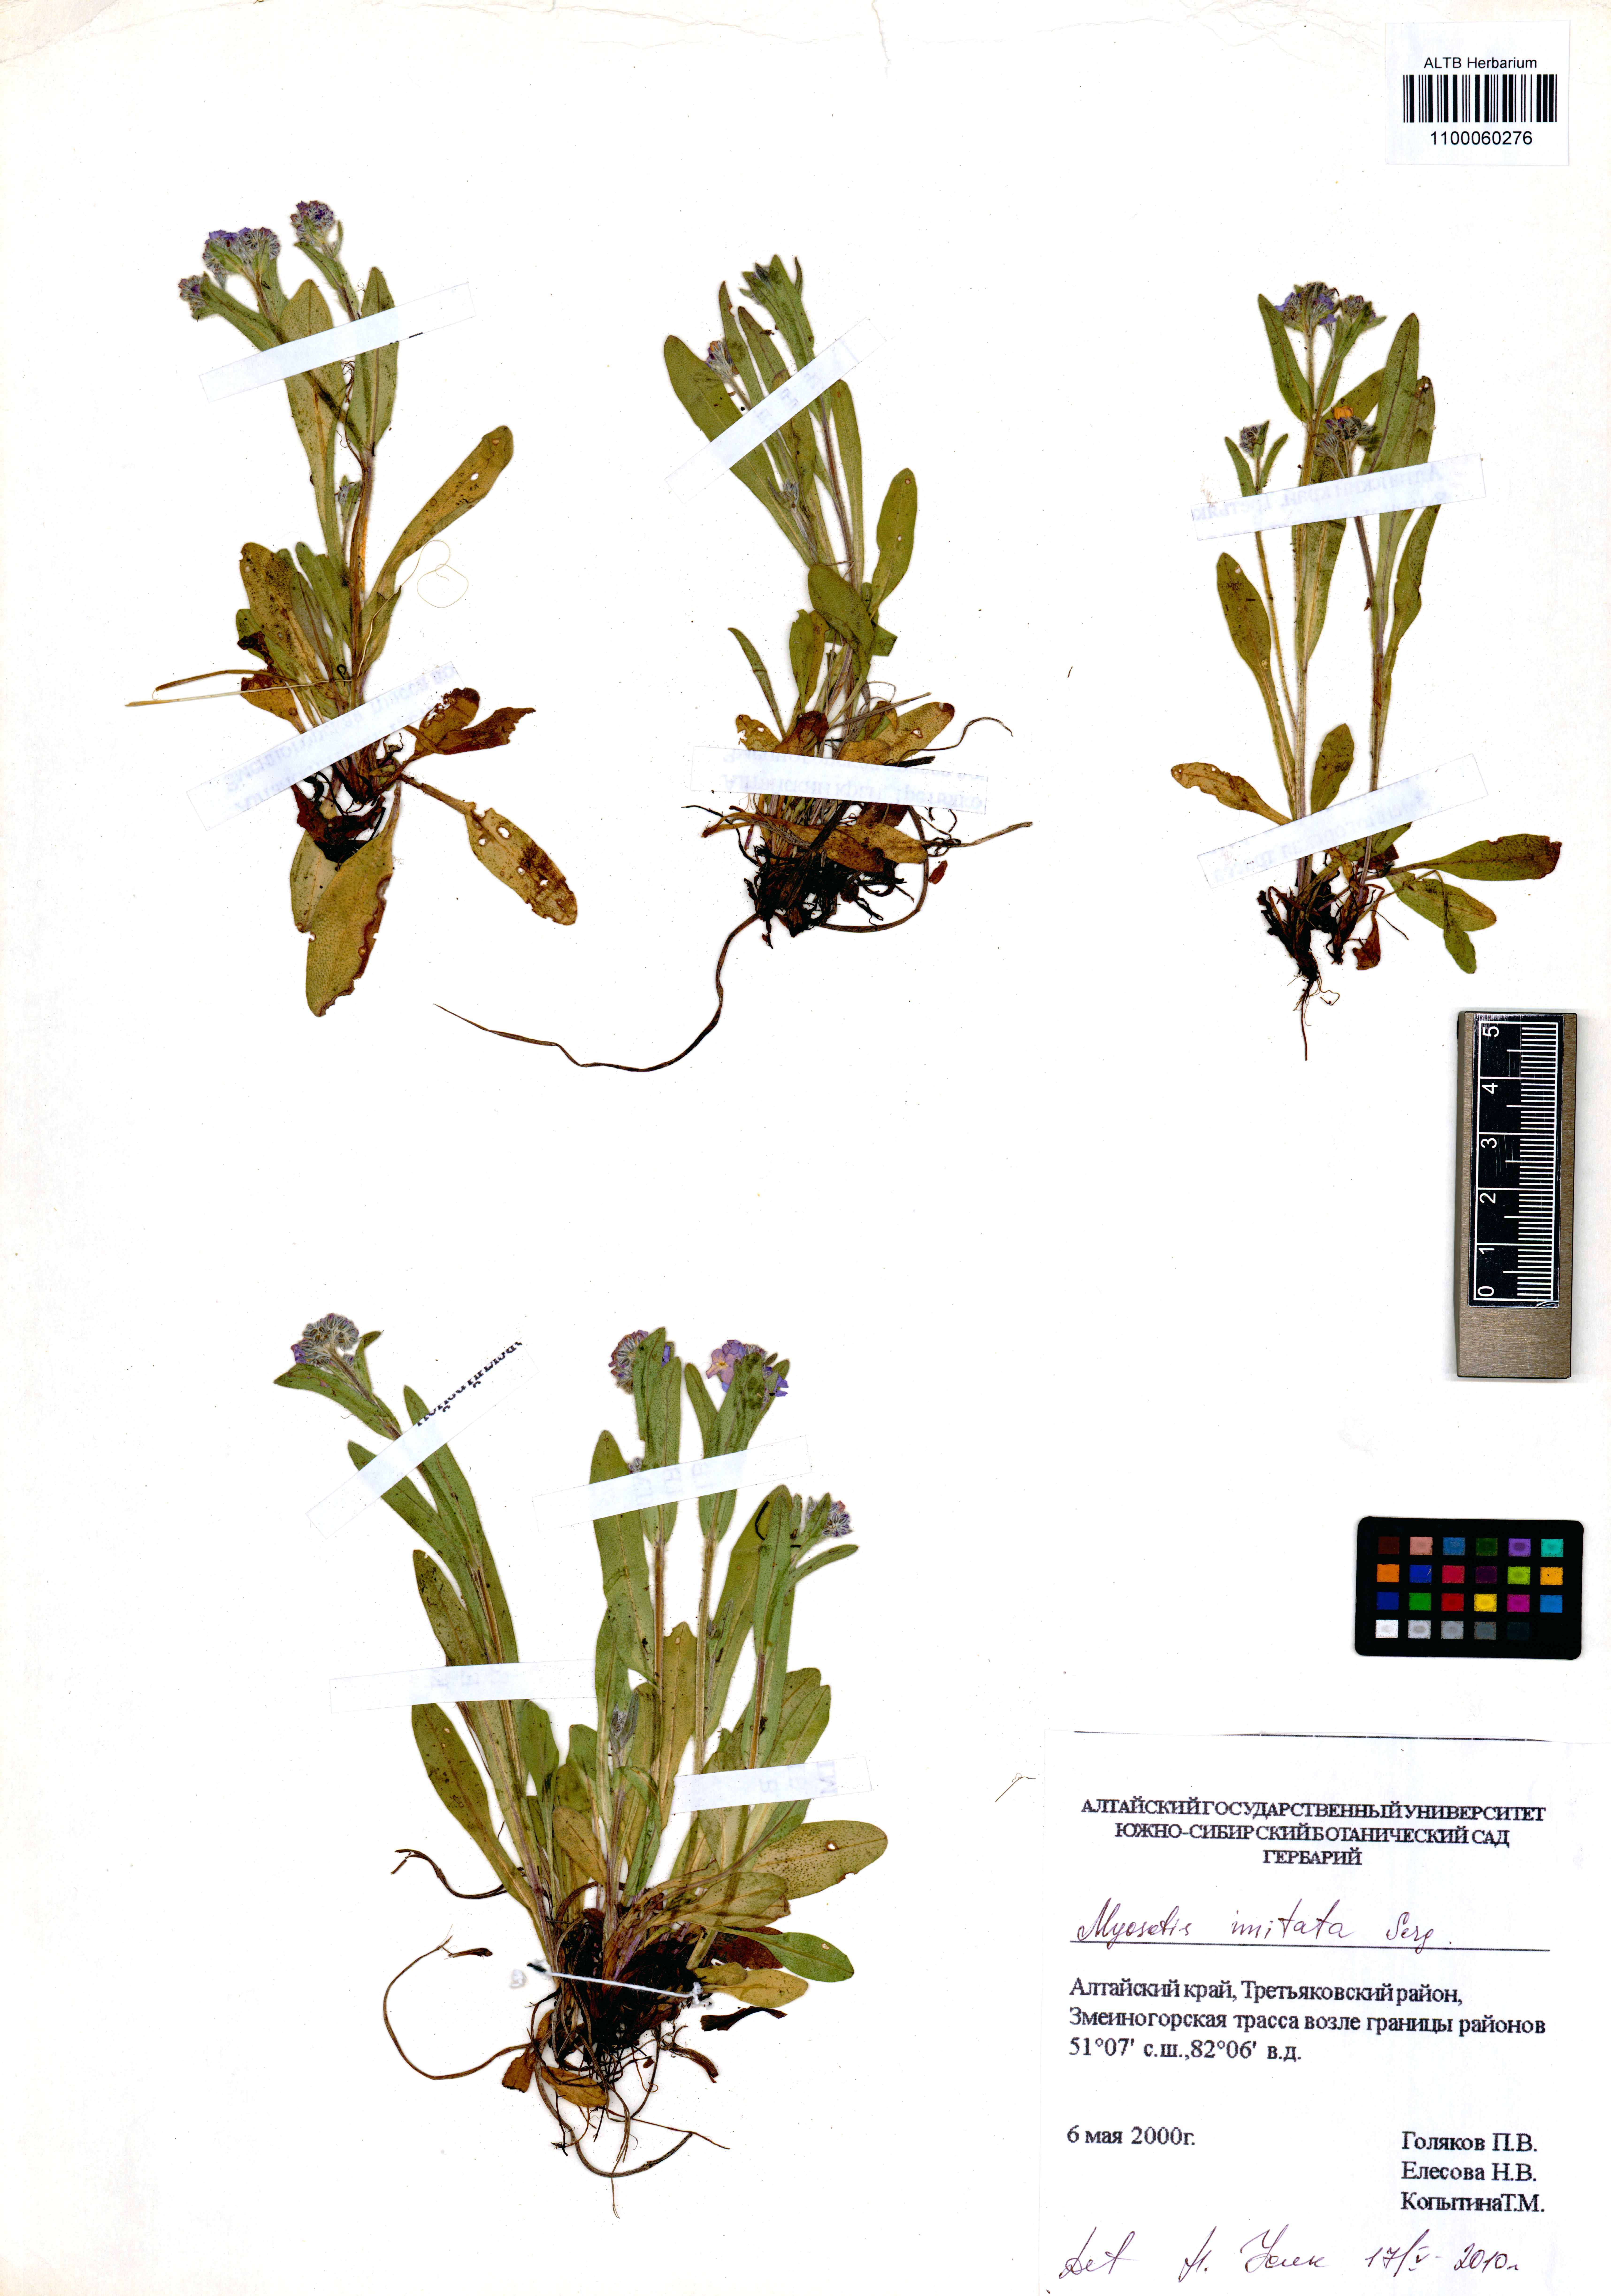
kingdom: Plantae
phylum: Tracheophyta
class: Magnoliopsida
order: Boraginales
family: Boraginaceae
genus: Myosotis
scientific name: Myosotis imitata
